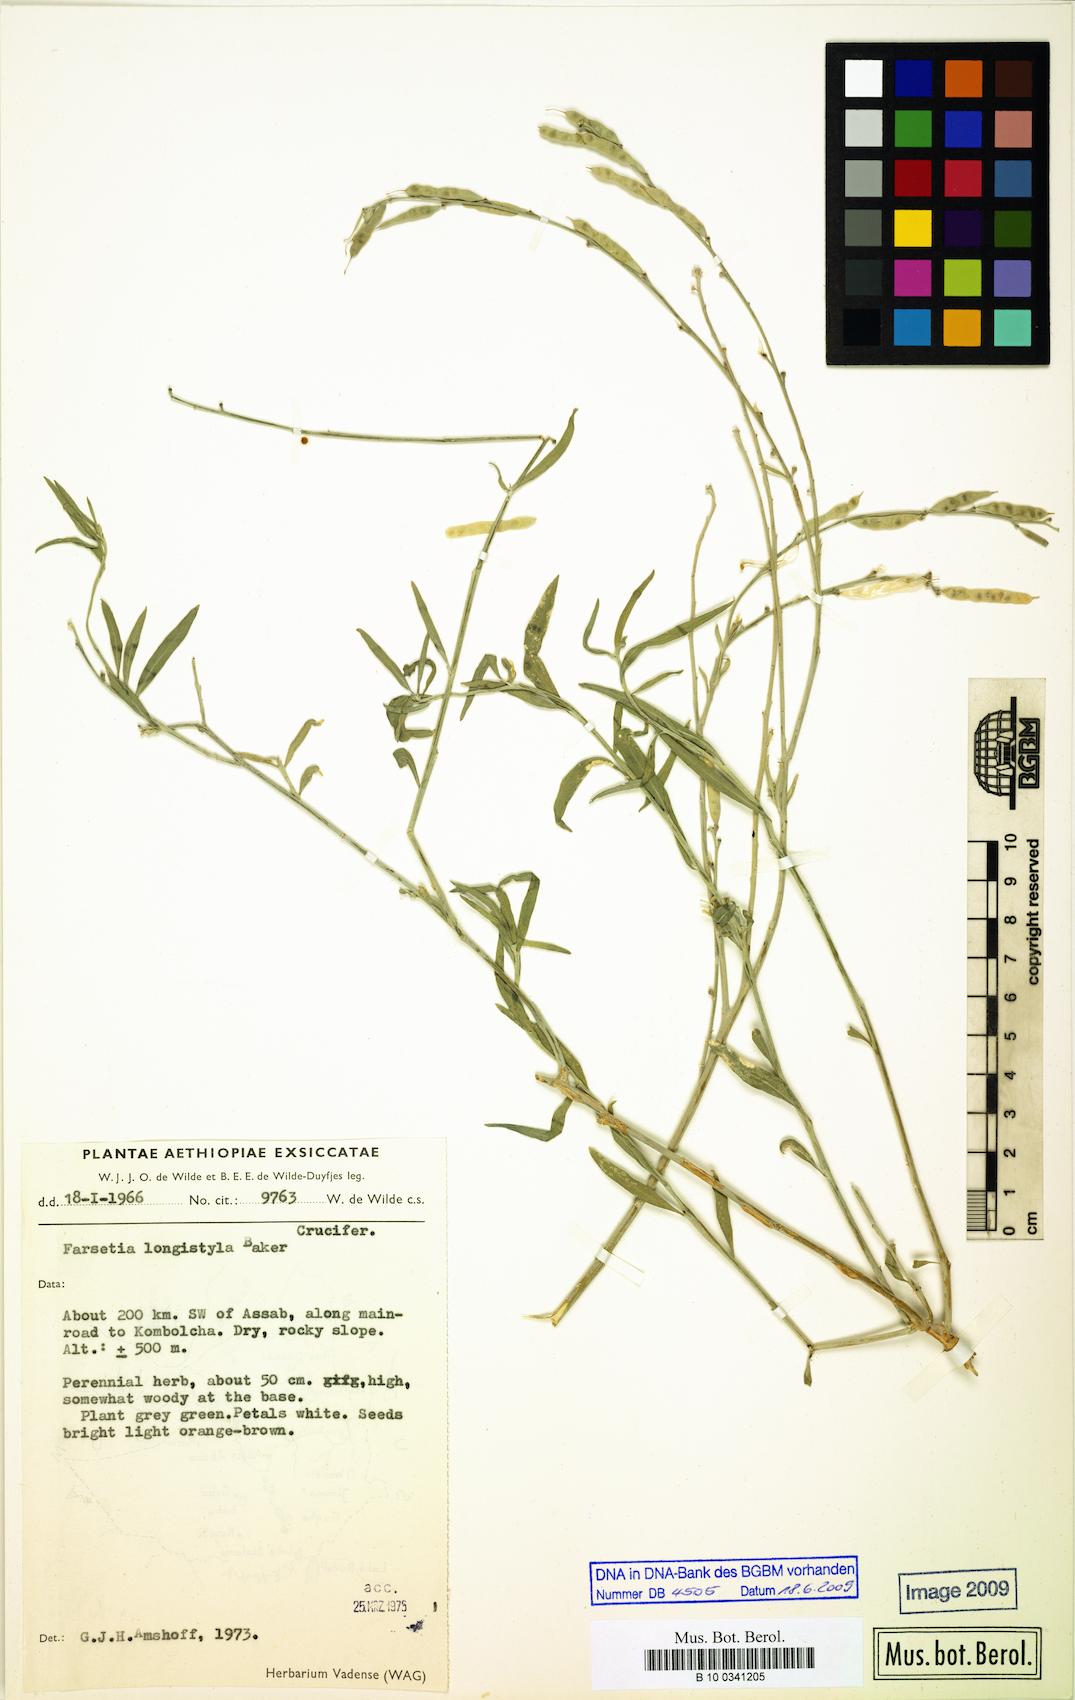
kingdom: Plantae
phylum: Tracheophyta
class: Magnoliopsida
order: Brassicales
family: Brassicaceae
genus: Farsetia
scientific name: Farsetia longistyla
